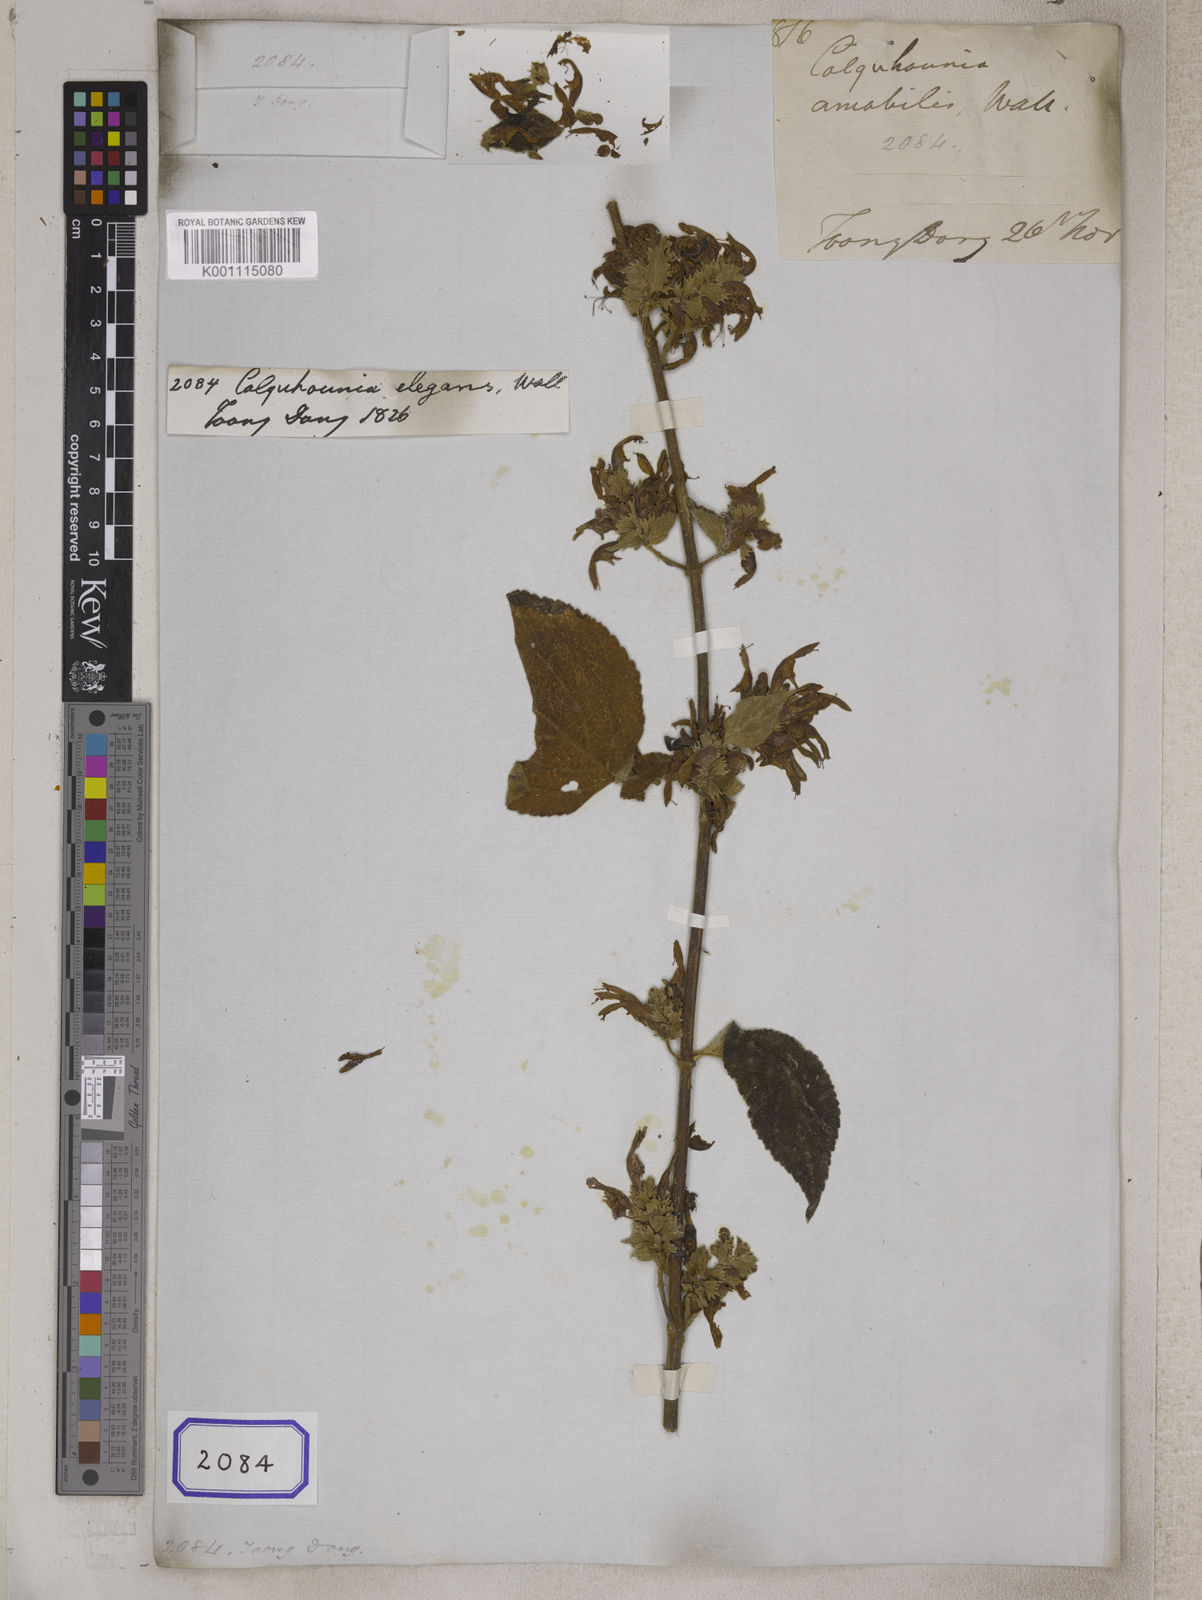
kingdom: Plantae
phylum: Tracheophyta
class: Magnoliopsida
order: Lamiales
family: Lamiaceae
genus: Colquhounia
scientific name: Colquhounia
